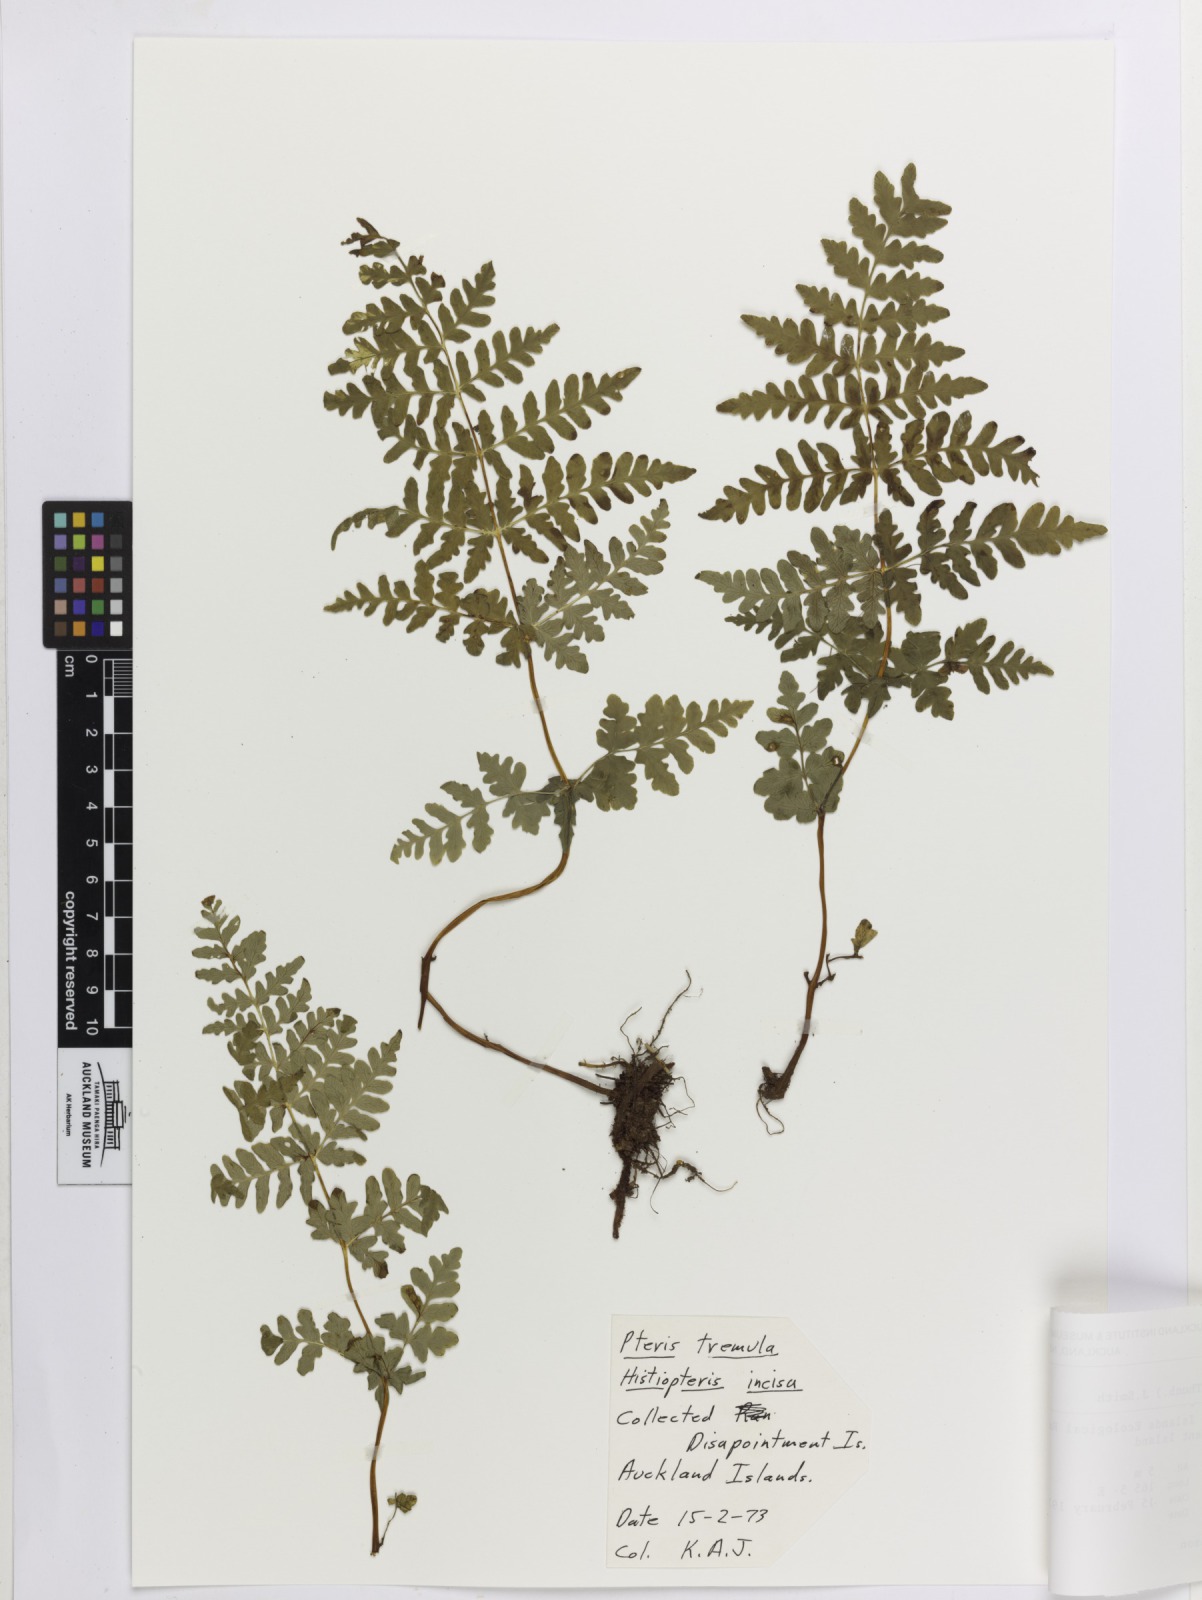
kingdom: Plantae
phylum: Tracheophyta
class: Polypodiopsida
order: Polypodiales
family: Dennstaedtiaceae
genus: Histiopteris
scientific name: Histiopteris incisa
